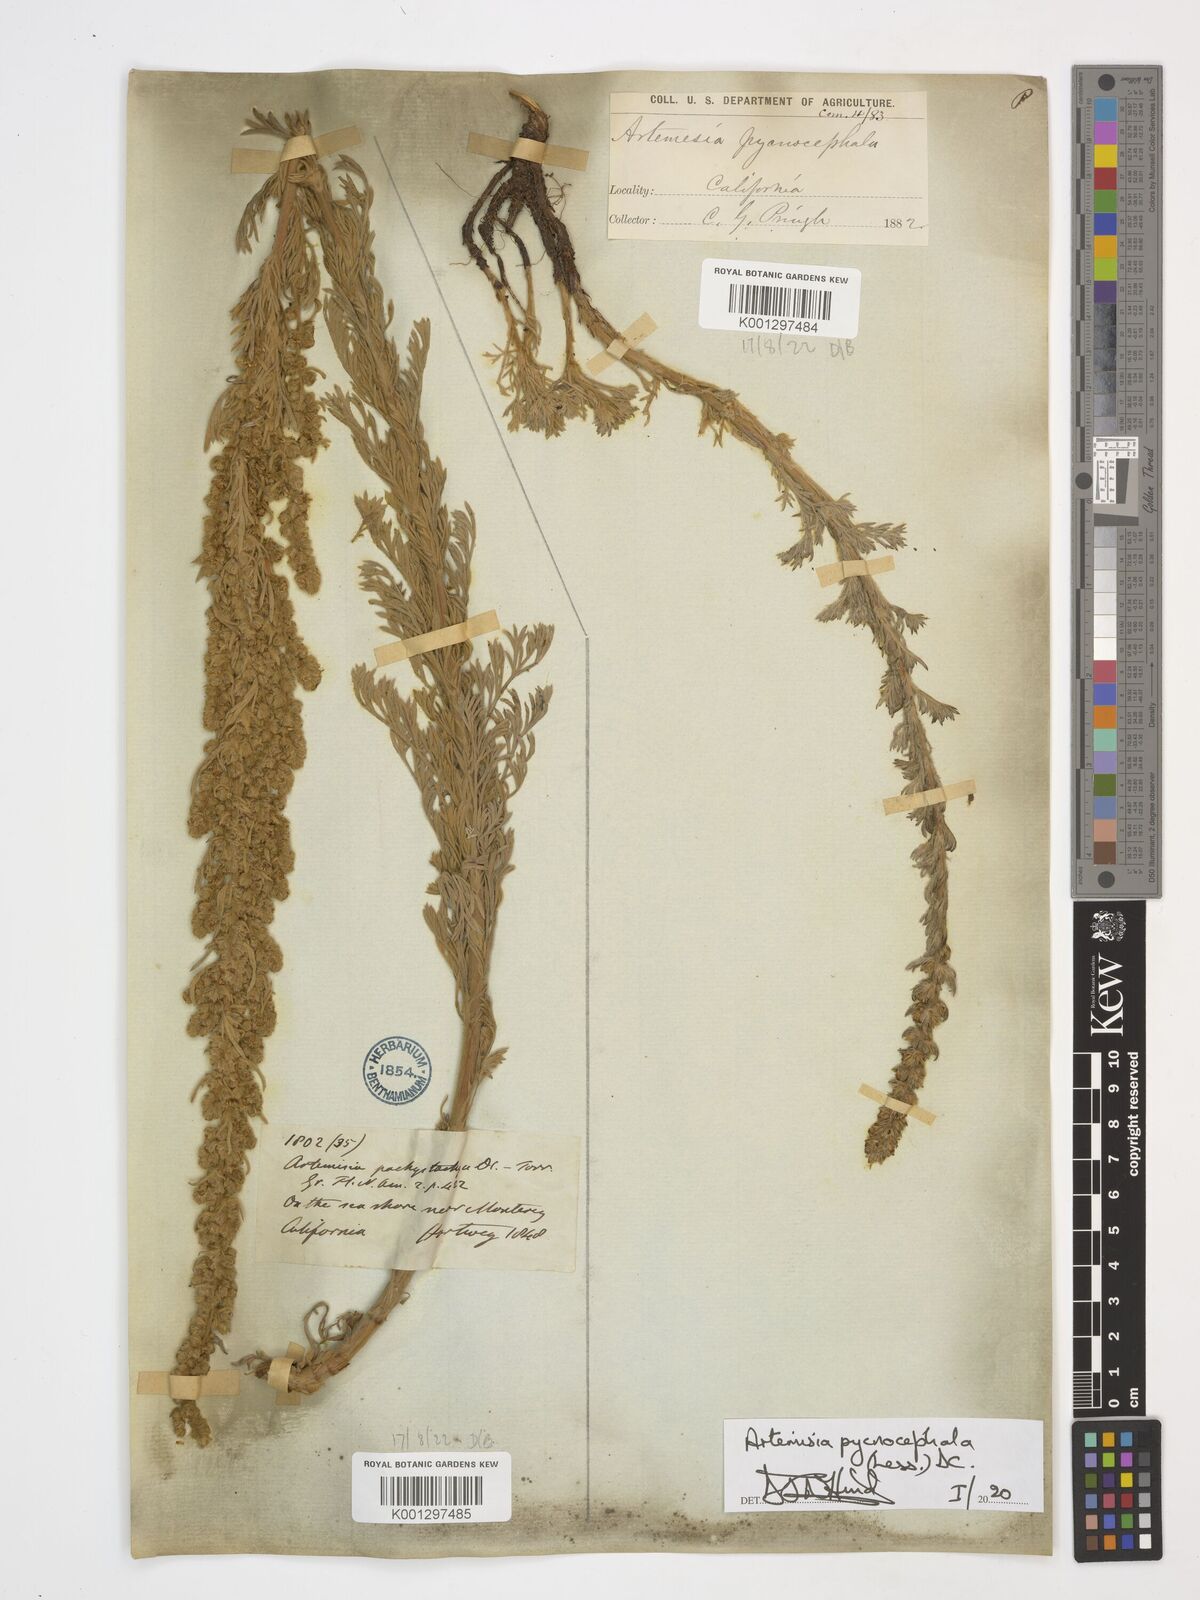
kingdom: Plantae
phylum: Tracheophyta
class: Magnoliopsida
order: Asterales
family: Asteraceae
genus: Artemisia
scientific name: Artemisia pycnocephala
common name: Coastal sagewort
